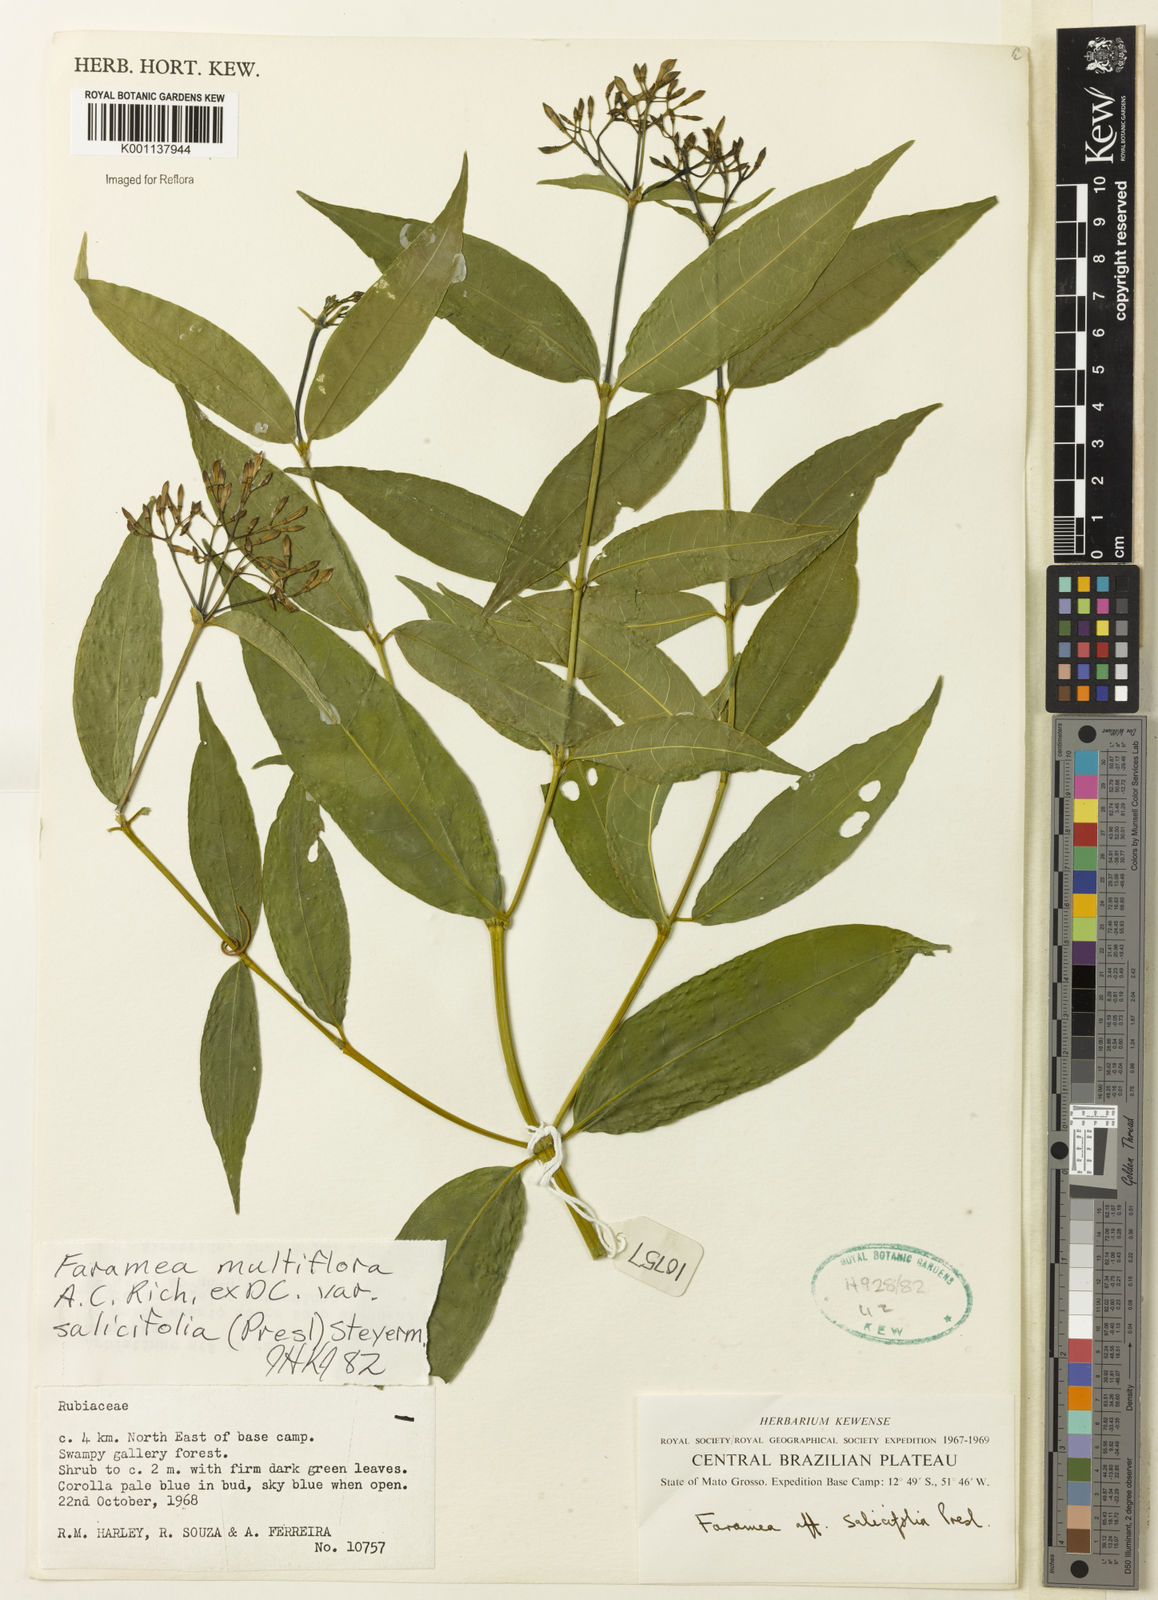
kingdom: Plantae
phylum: Tracheophyta
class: Magnoliopsida
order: Gentianales
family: Rubiaceae
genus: Faramea
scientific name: Faramea multiflora
